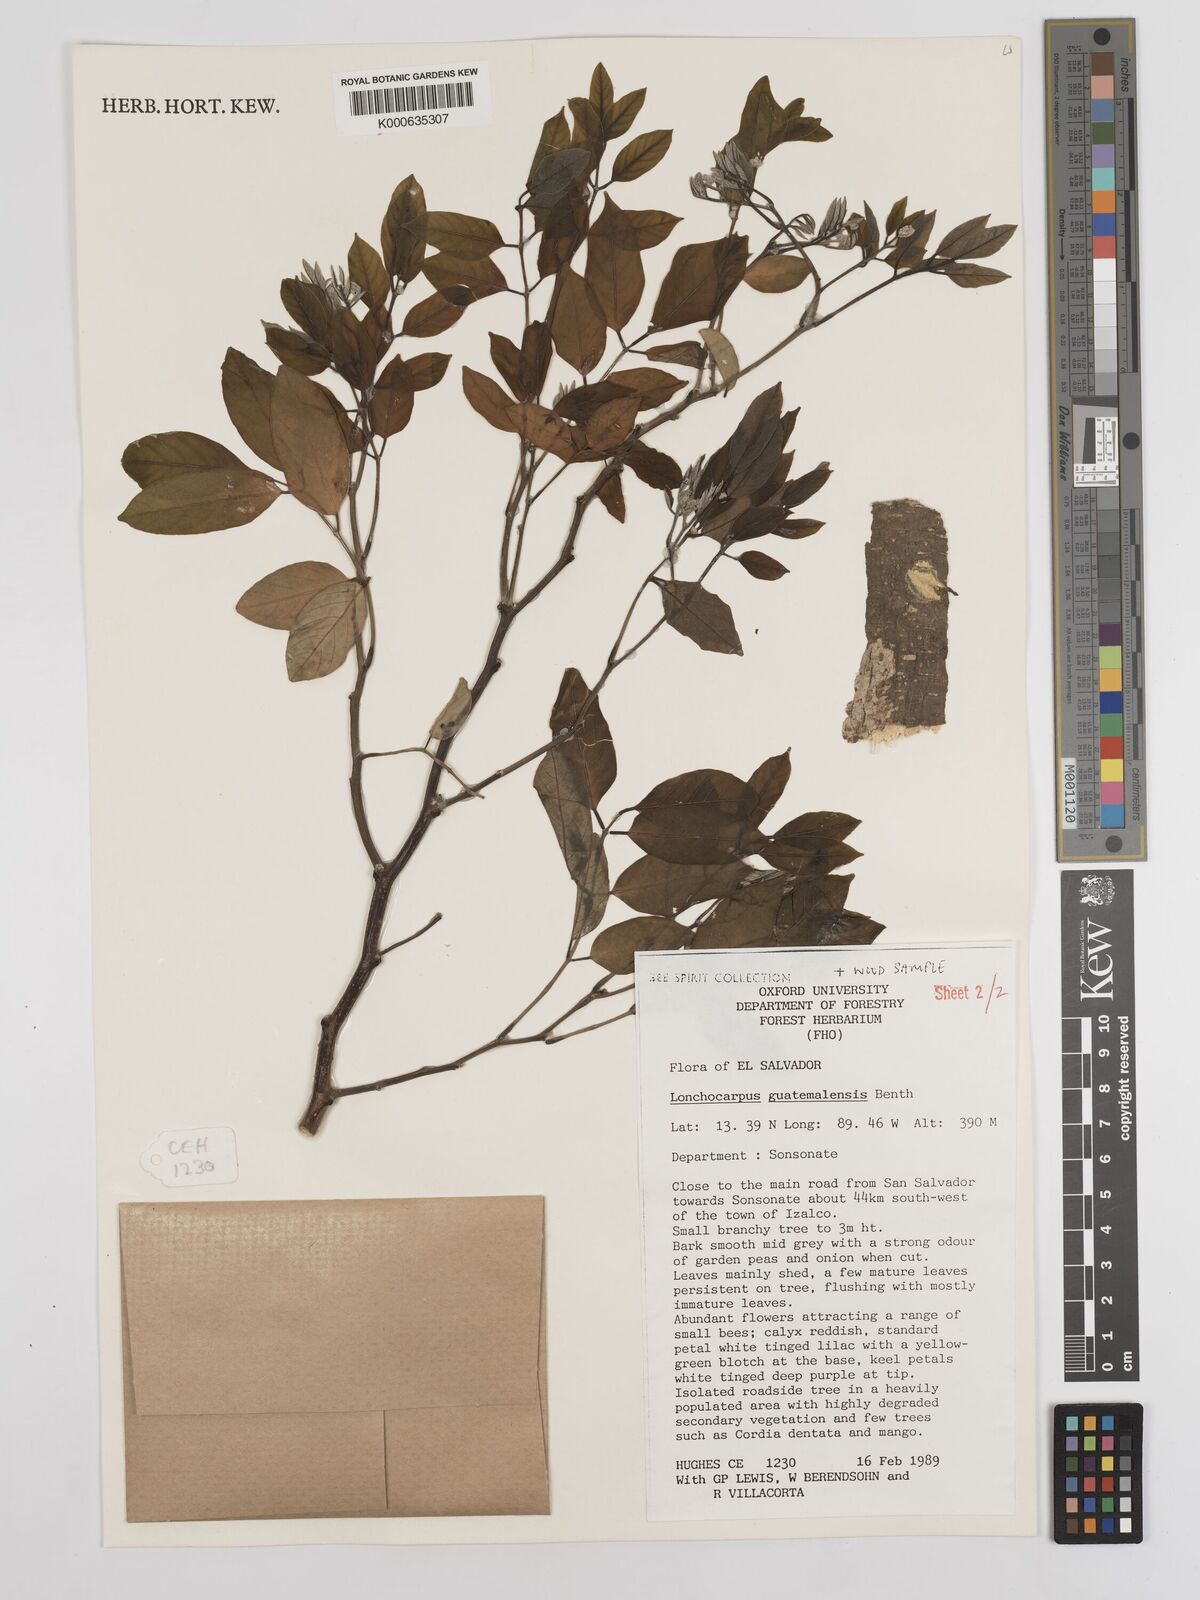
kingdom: Plantae
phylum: Tracheophyta
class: Magnoliopsida
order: Fabales
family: Fabaceae
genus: Lonchocarpus
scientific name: Lonchocarpus guatemalensis
